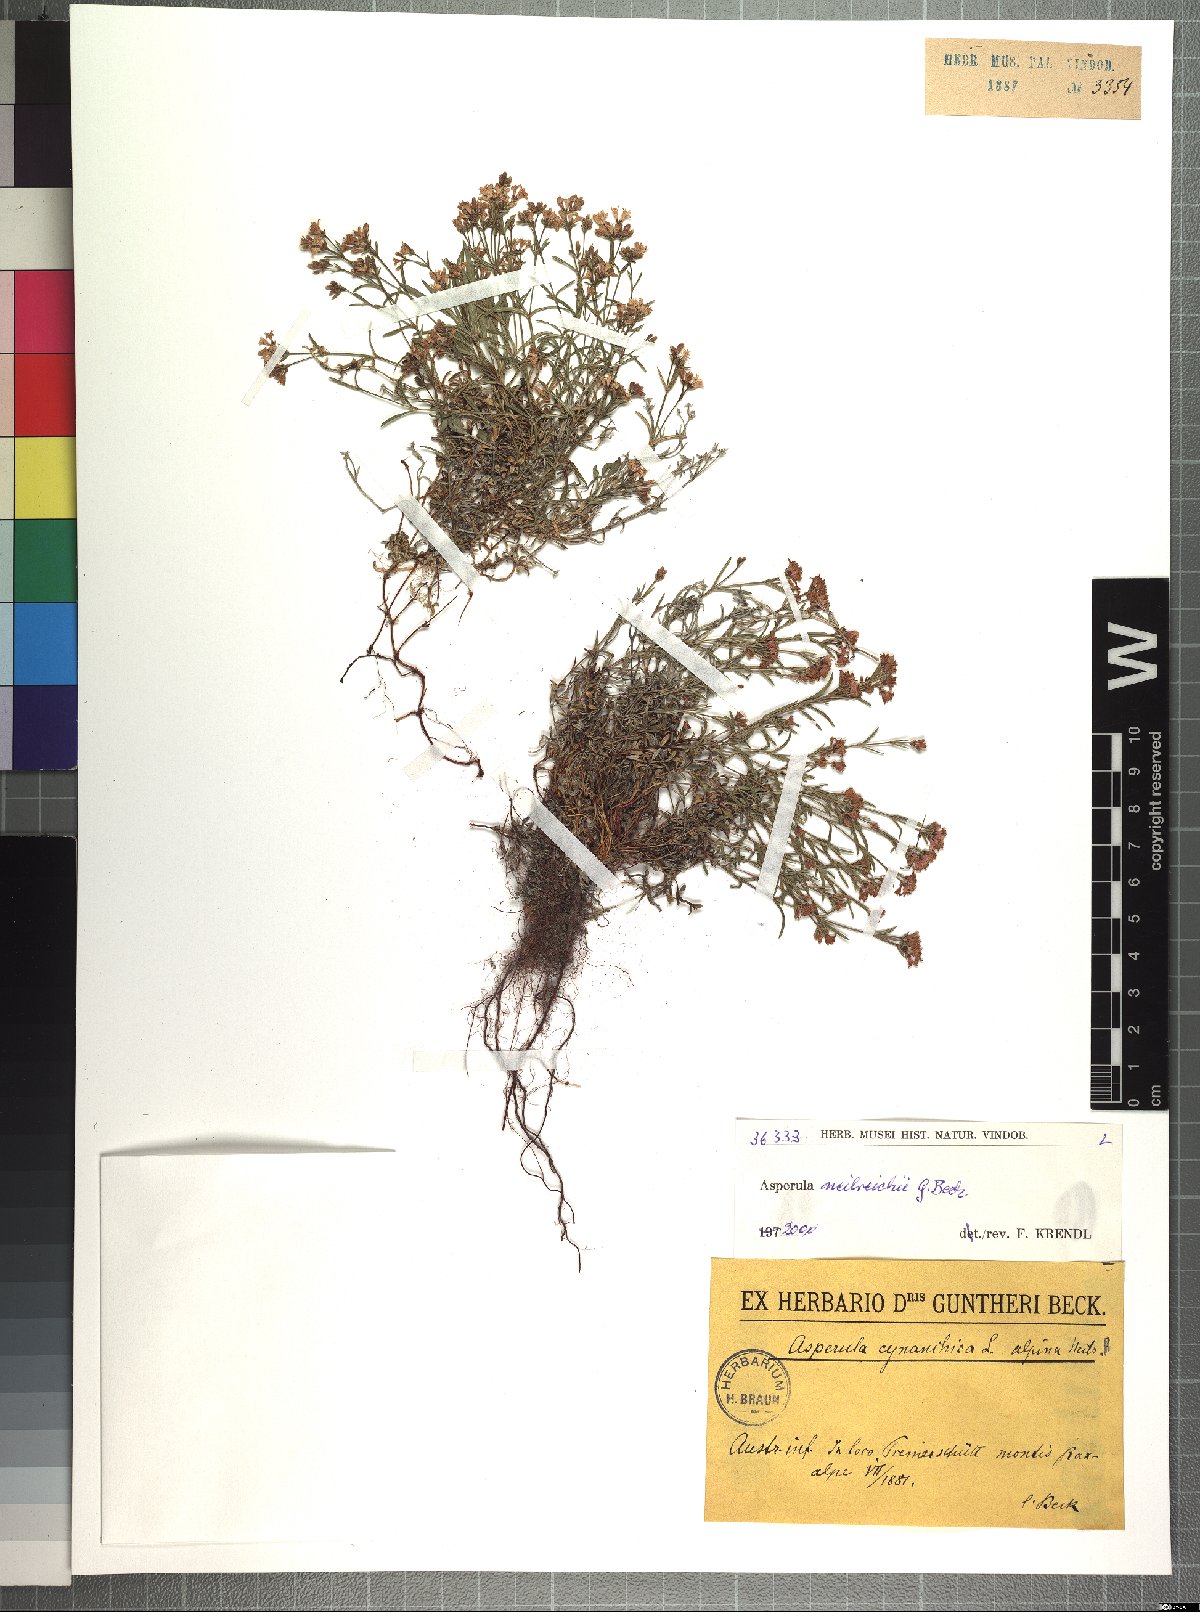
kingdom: Plantae
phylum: Tracheophyta
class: Magnoliopsida
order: Gentianales
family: Rubiaceae
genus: Cynanchica
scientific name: Cynanchica neilreichii
